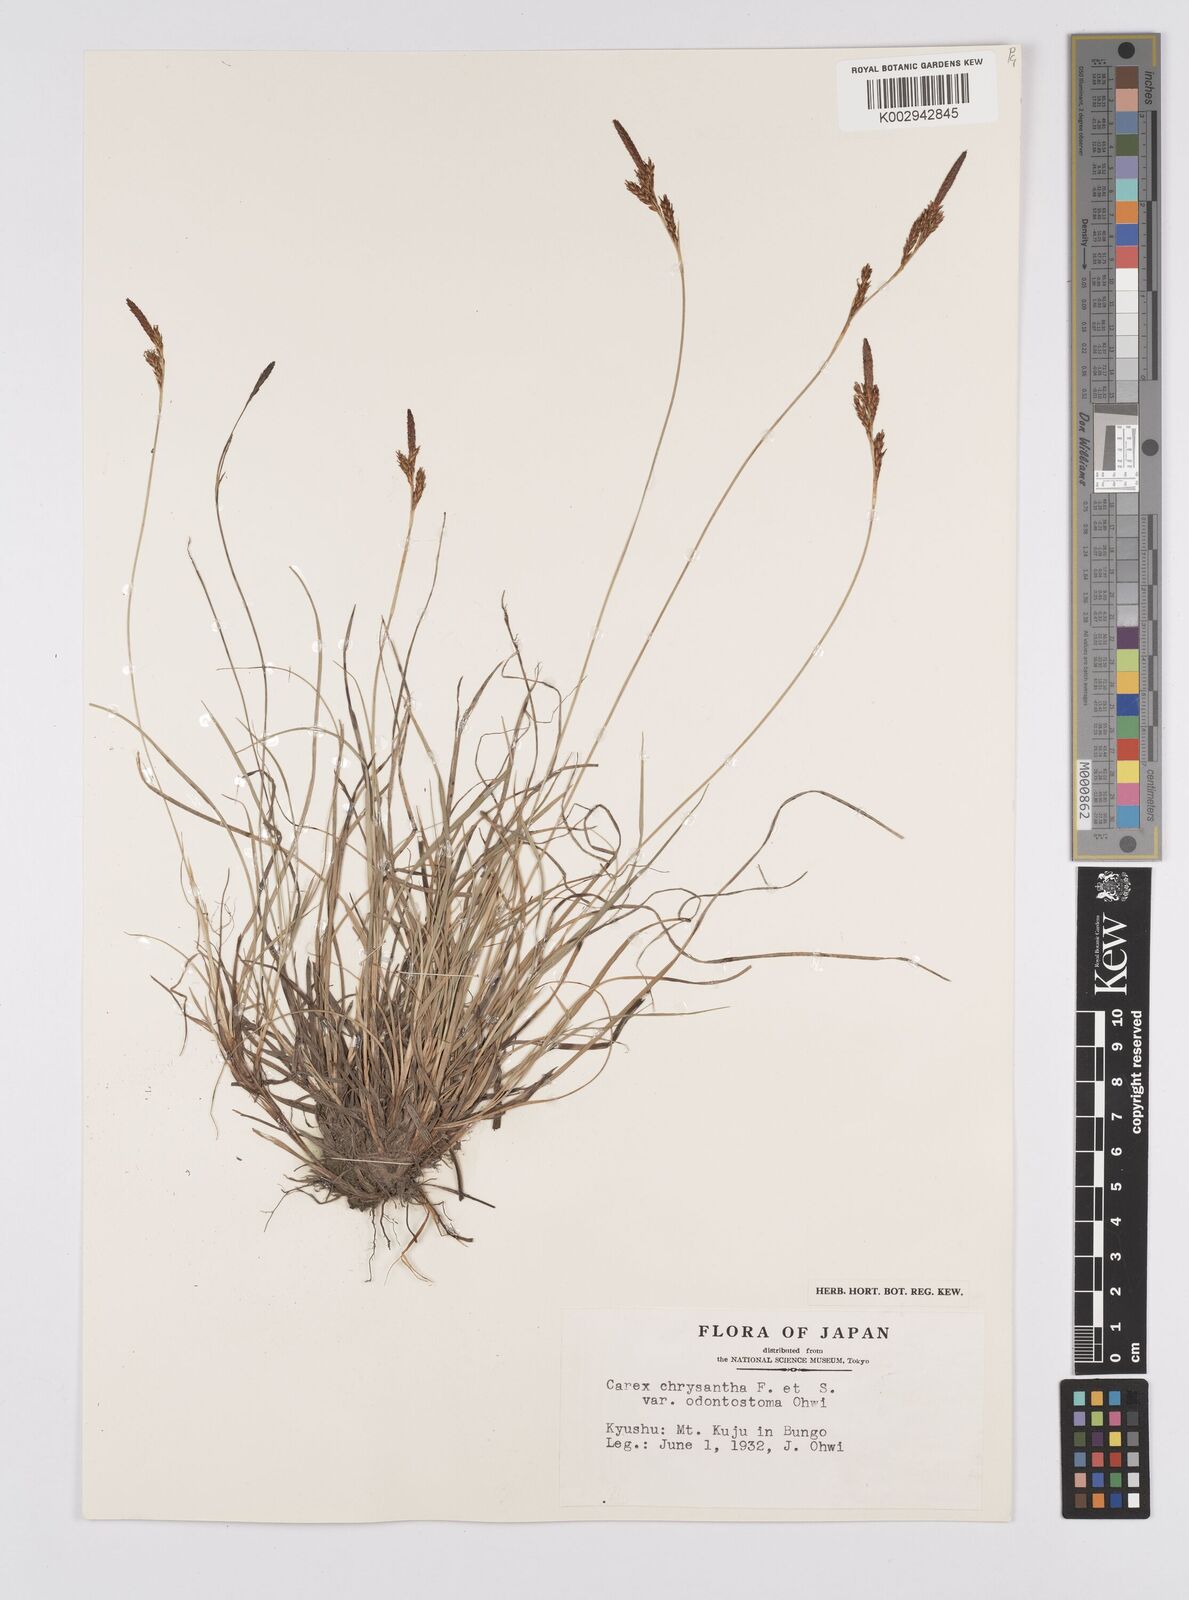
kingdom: Plantae
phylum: Tracheophyta
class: Liliopsida
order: Poales
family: Cyperaceae
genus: Carex
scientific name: Carex
